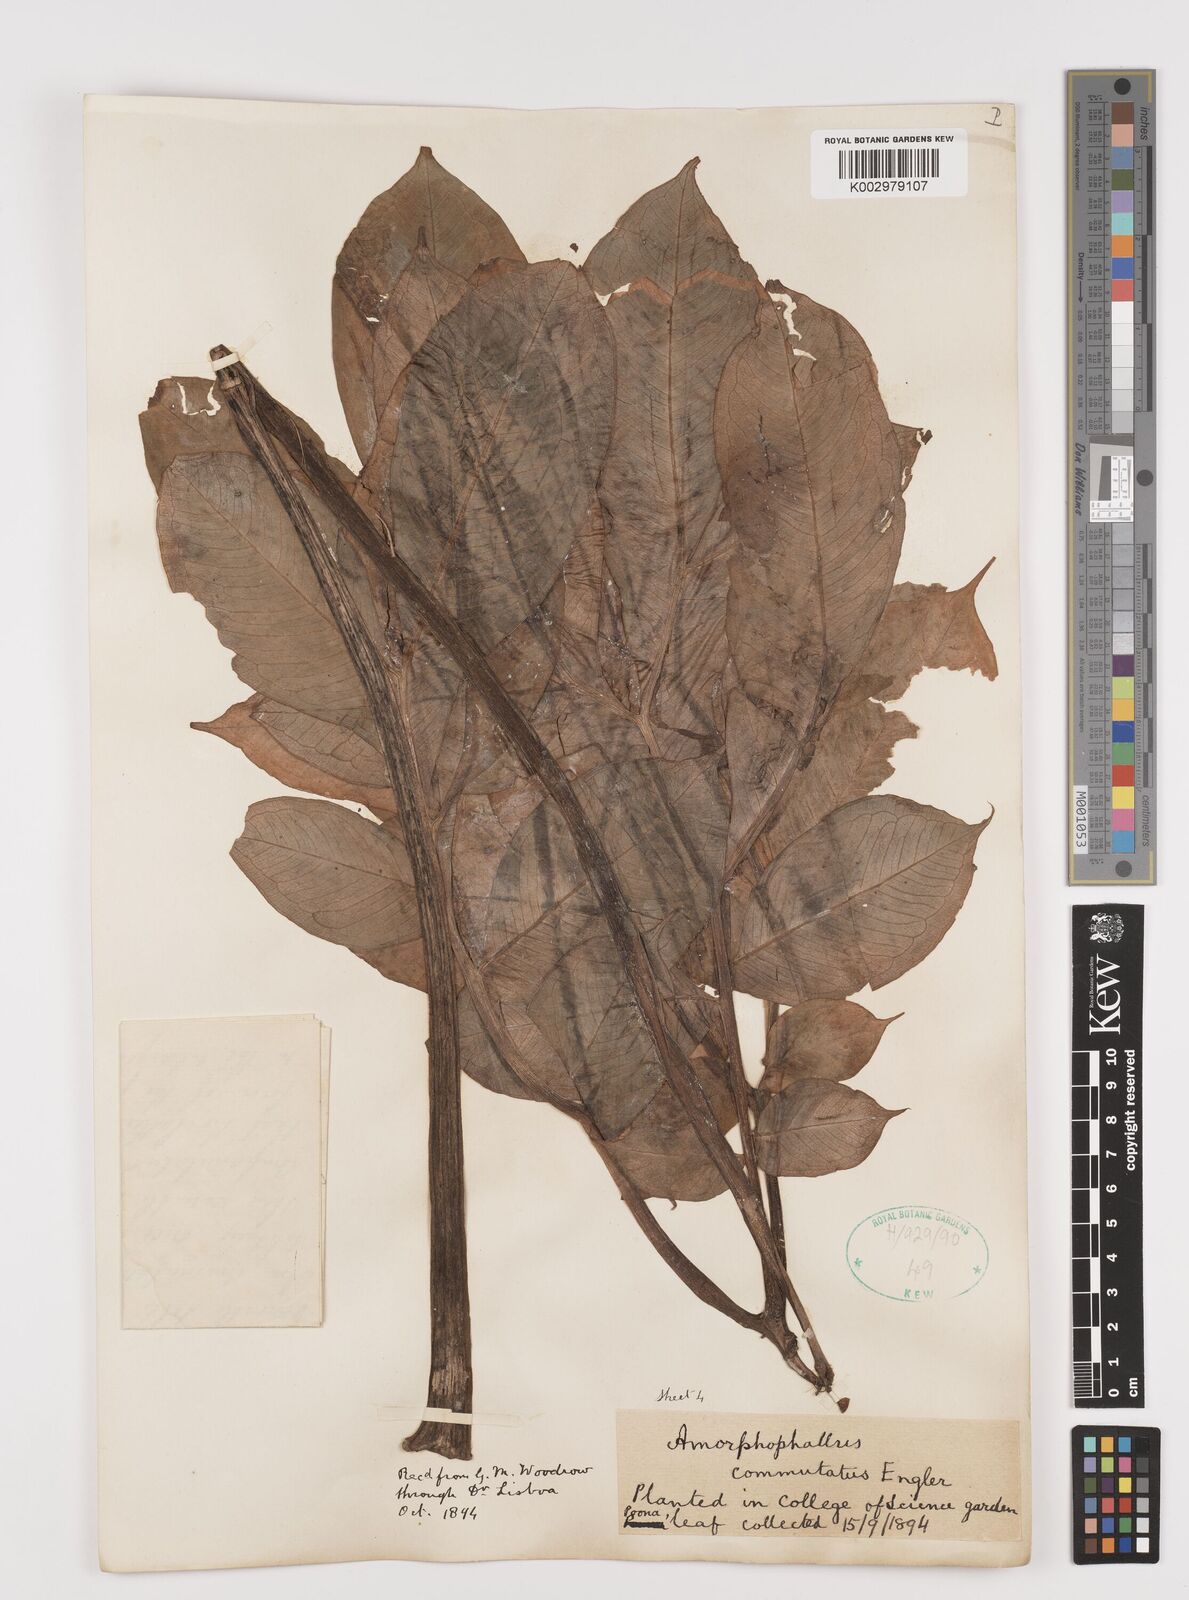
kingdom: Plantae
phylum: Tracheophyta
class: Liliopsida
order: Alismatales
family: Araceae
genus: Amorphophallus
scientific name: Amorphophallus commutatus
